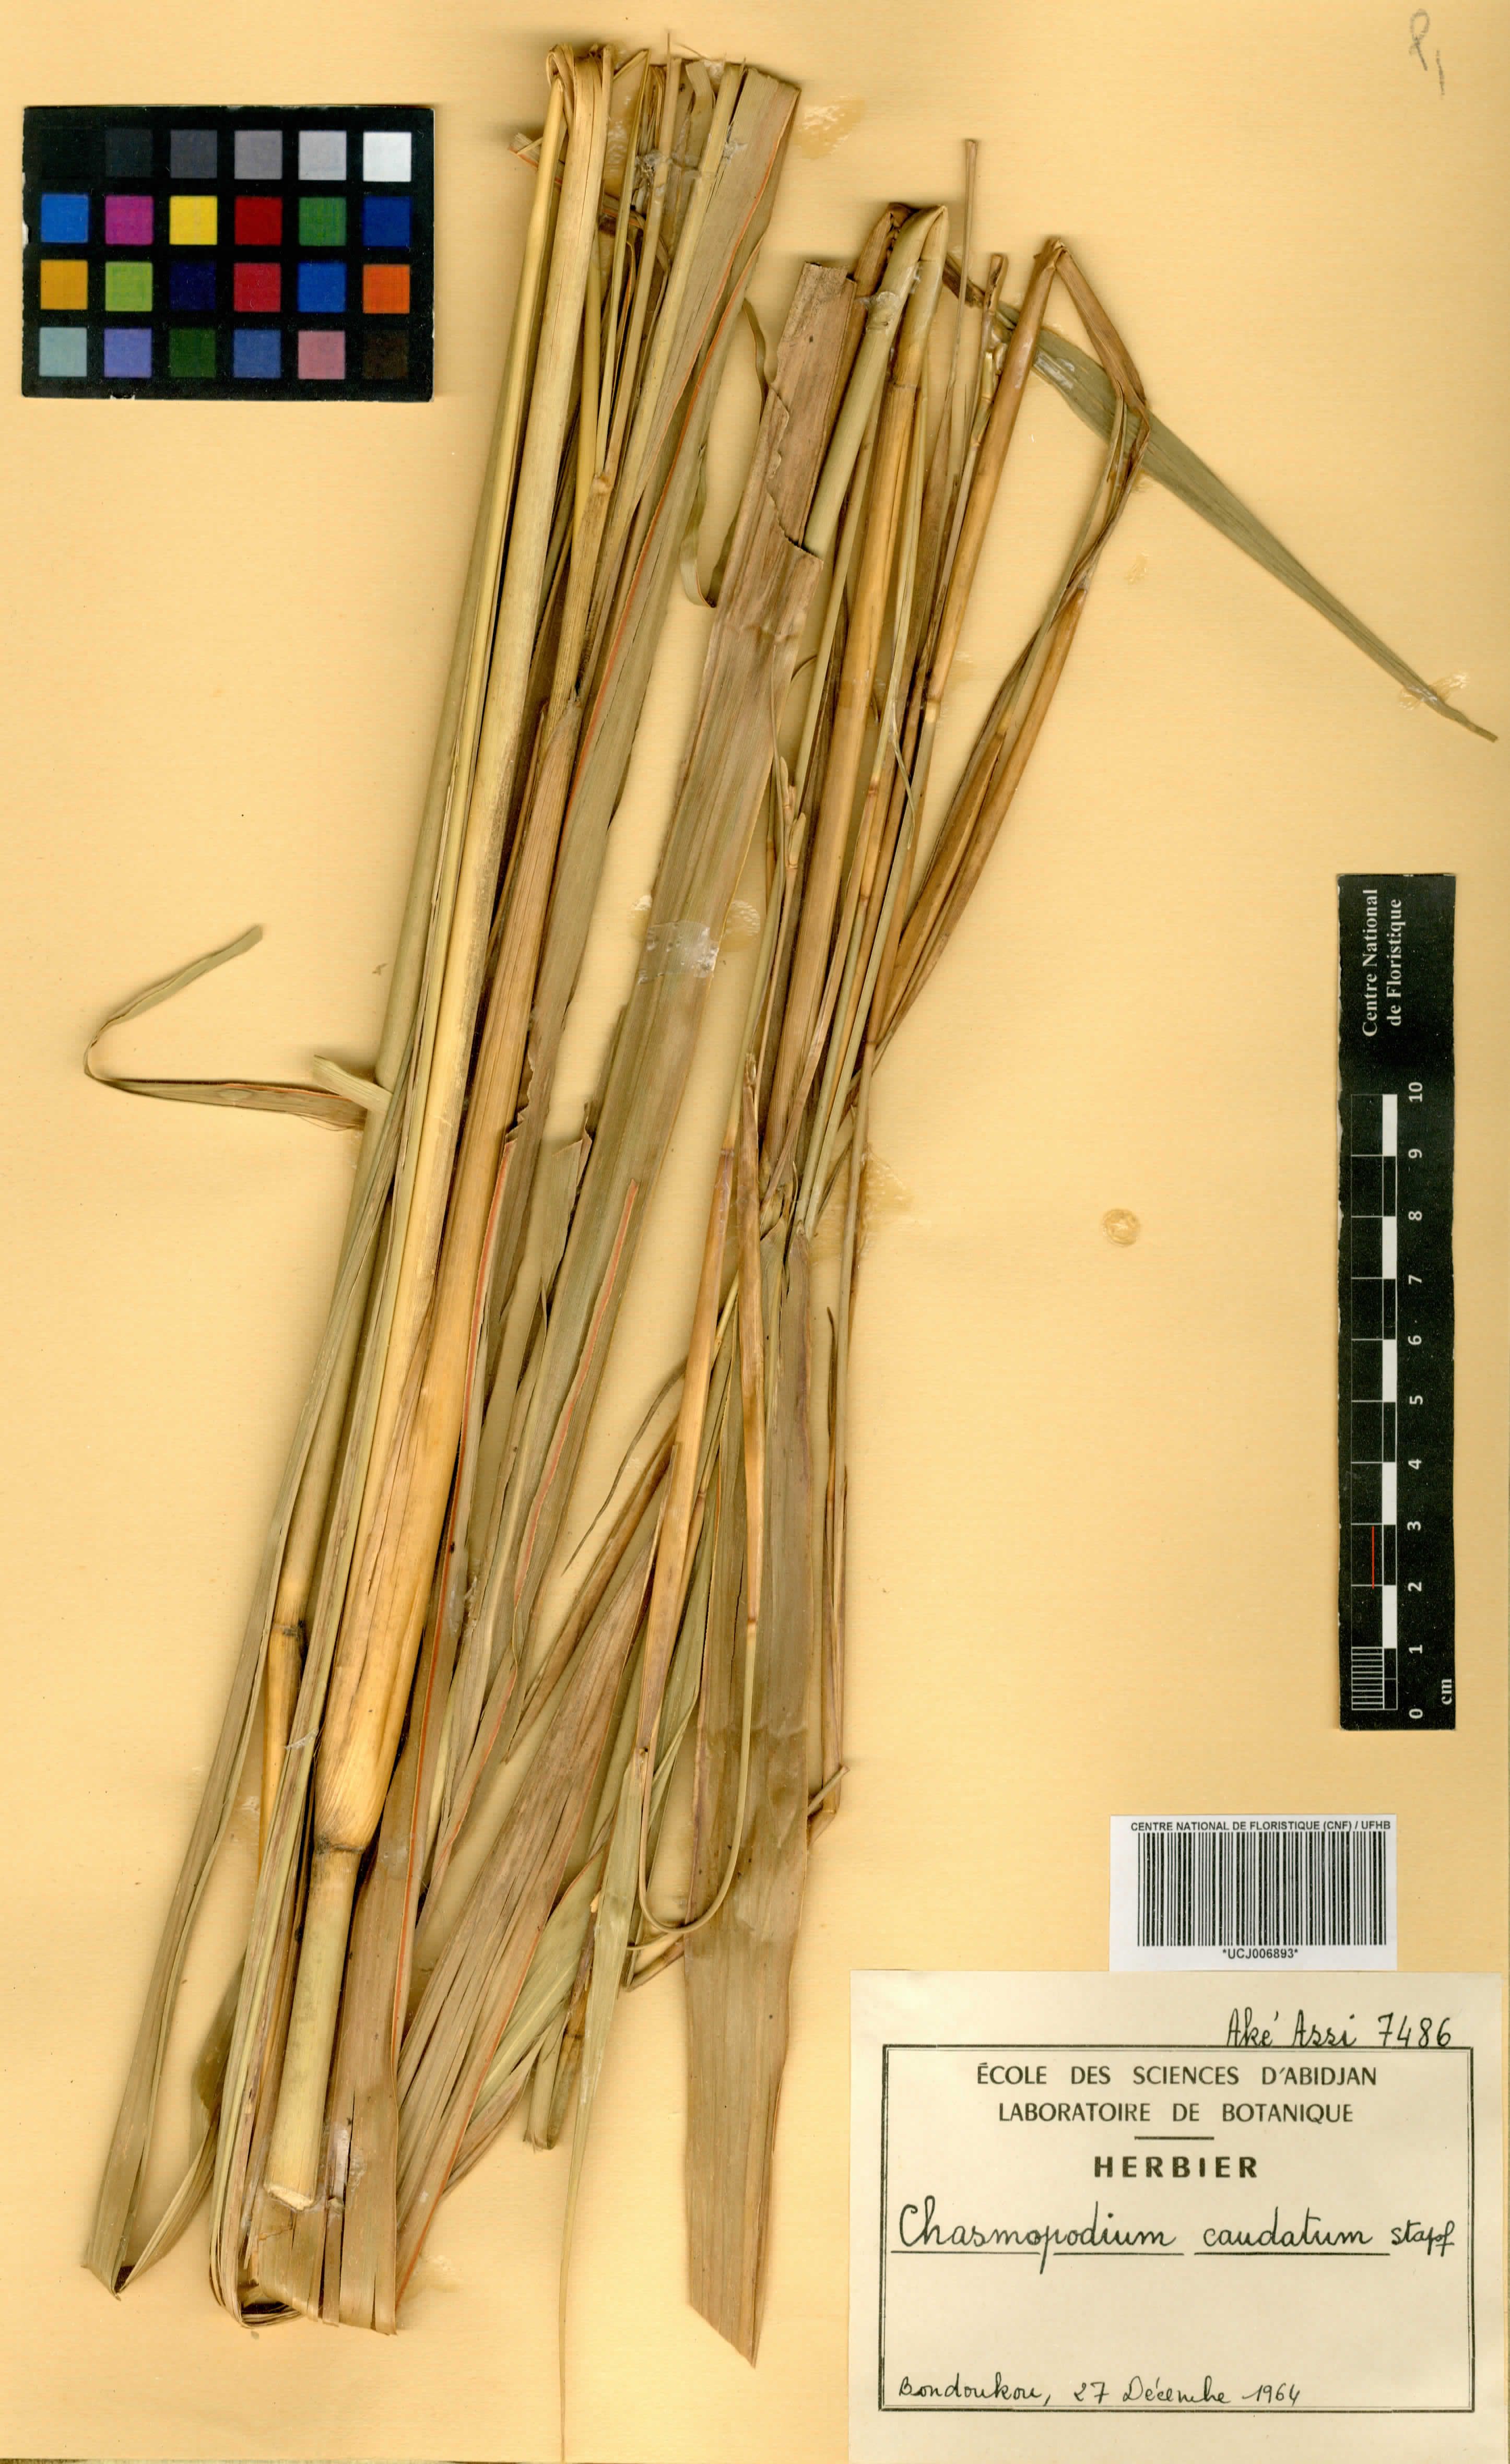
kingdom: Plantae
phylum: Tracheophyta
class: Liliopsida
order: Poales
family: Poaceae
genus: Chasmopodium
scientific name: Chasmopodium caudatum
